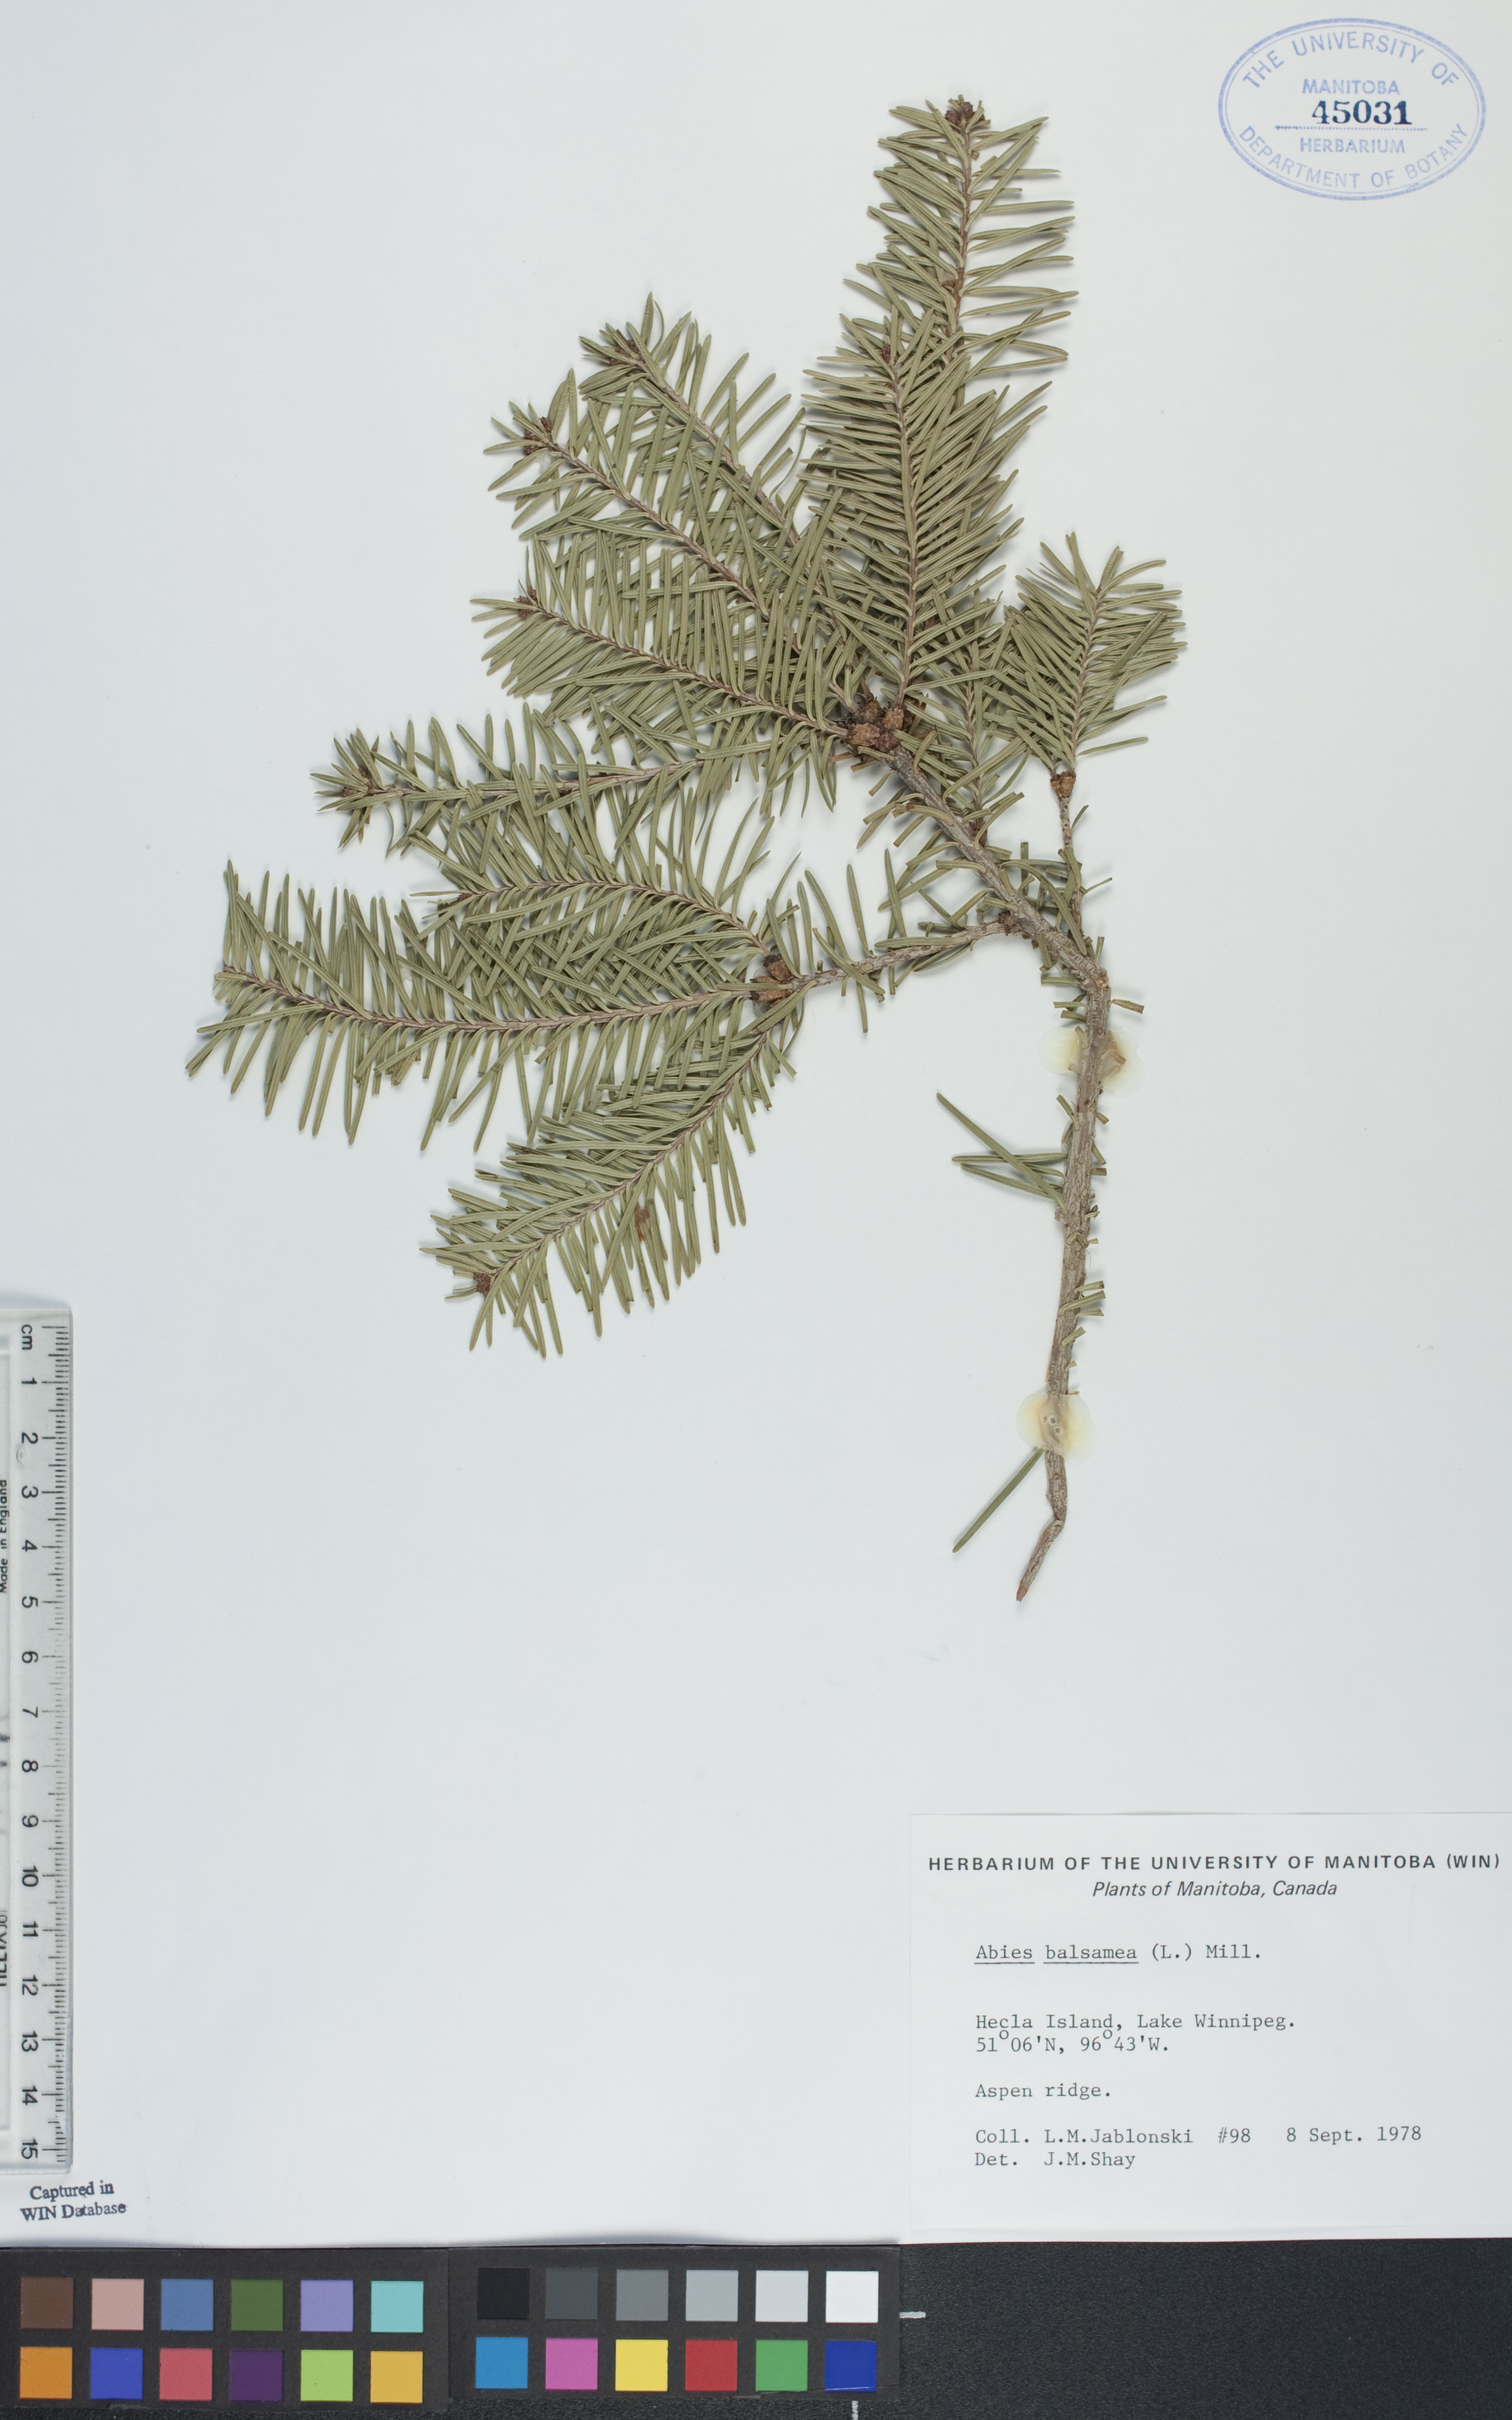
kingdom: Plantae
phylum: Tracheophyta
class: Pinopsida
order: Pinales
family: Pinaceae
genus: Abies
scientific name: Abies balsamea
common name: Balsam fir
